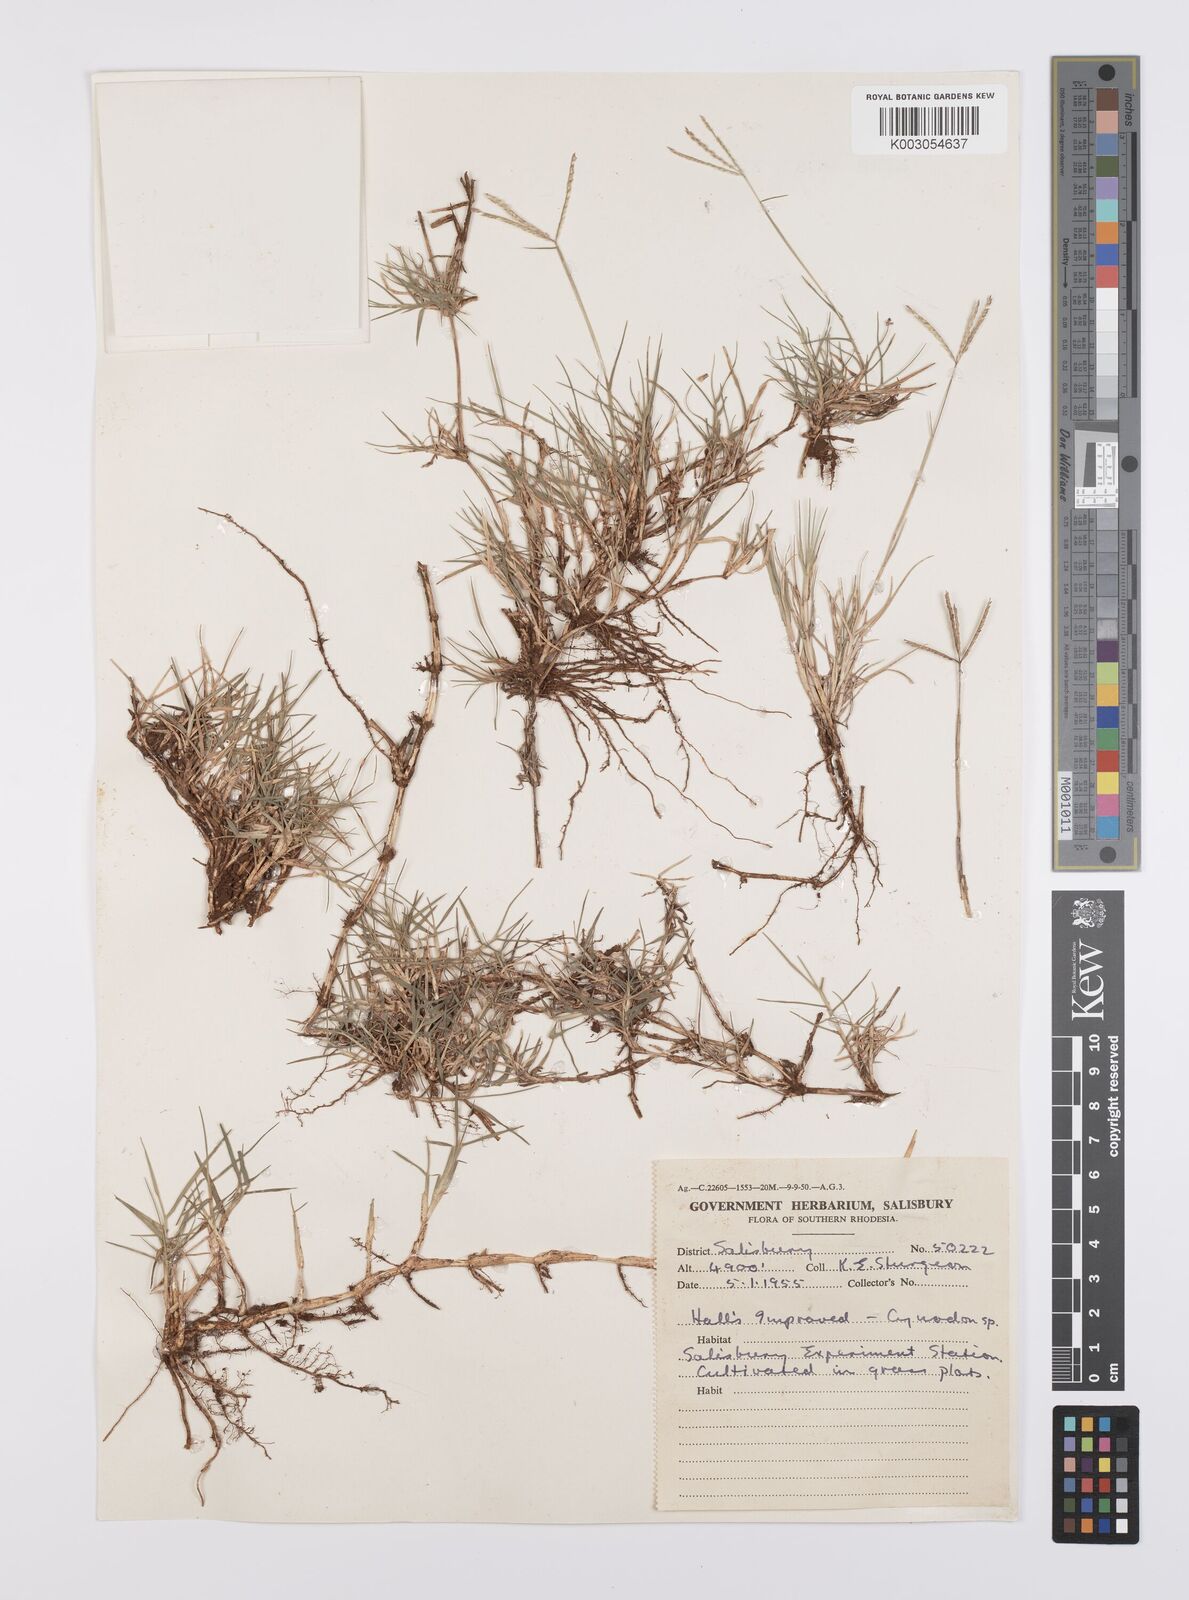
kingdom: Plantae
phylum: Tracheophyta
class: Liliopsida
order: Poales
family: Poaceae
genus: Cynodon
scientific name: Cynodon dactylon
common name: Bermuda grass
